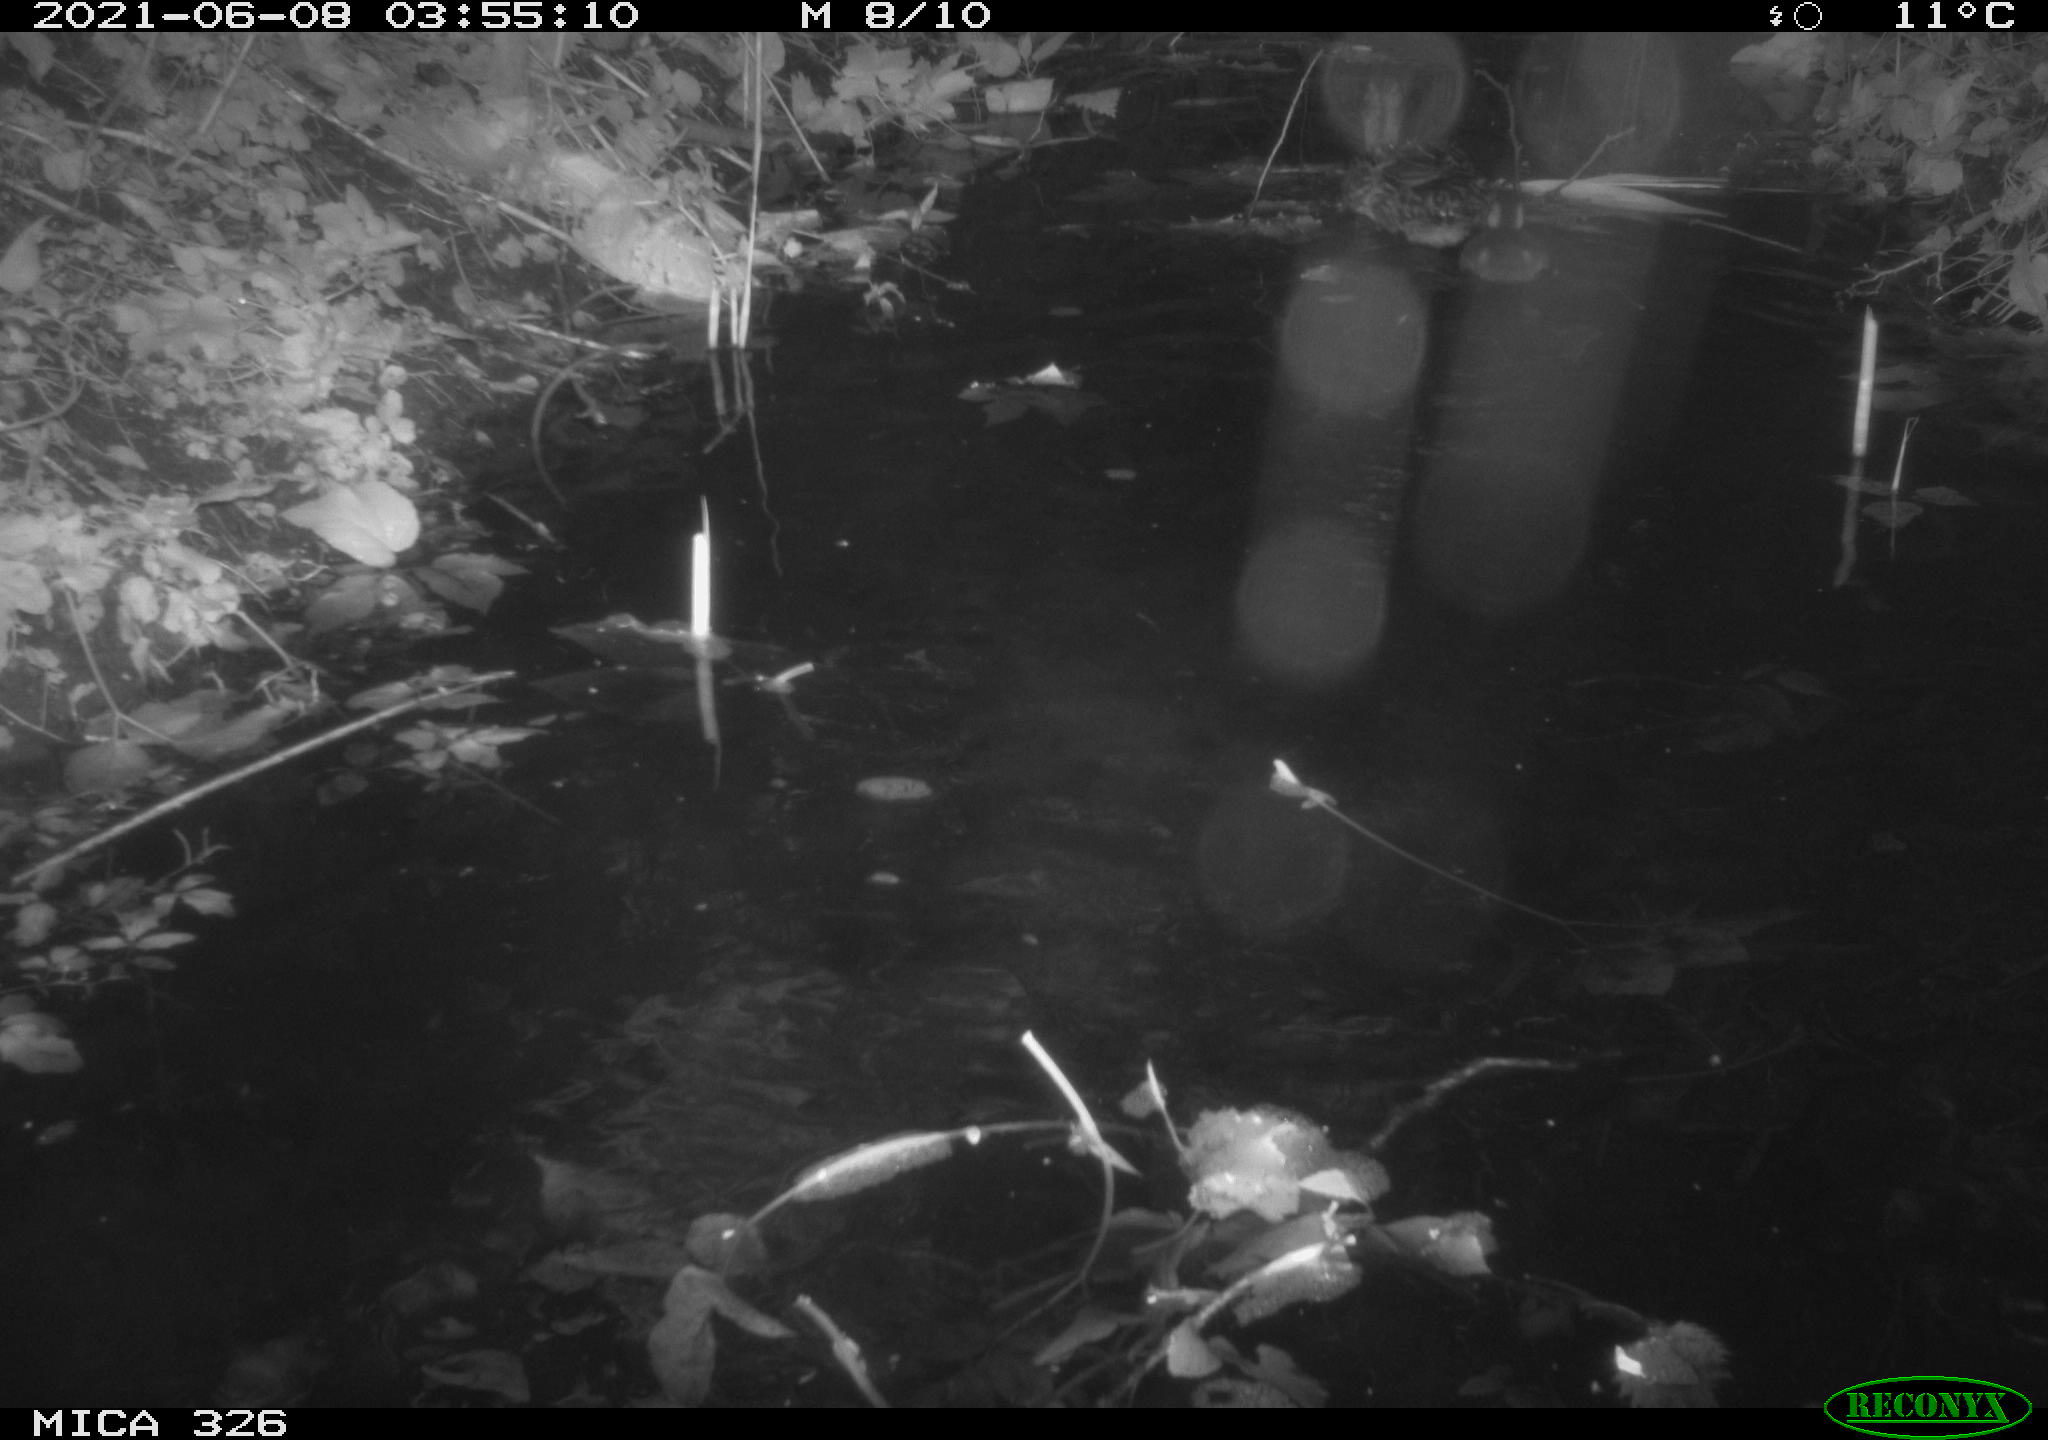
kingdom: Animalia
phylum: Chordata
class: Aves
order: Anseriformes
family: Anatidae
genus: Anas
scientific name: Anas platyrhynchos
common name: Mallard
